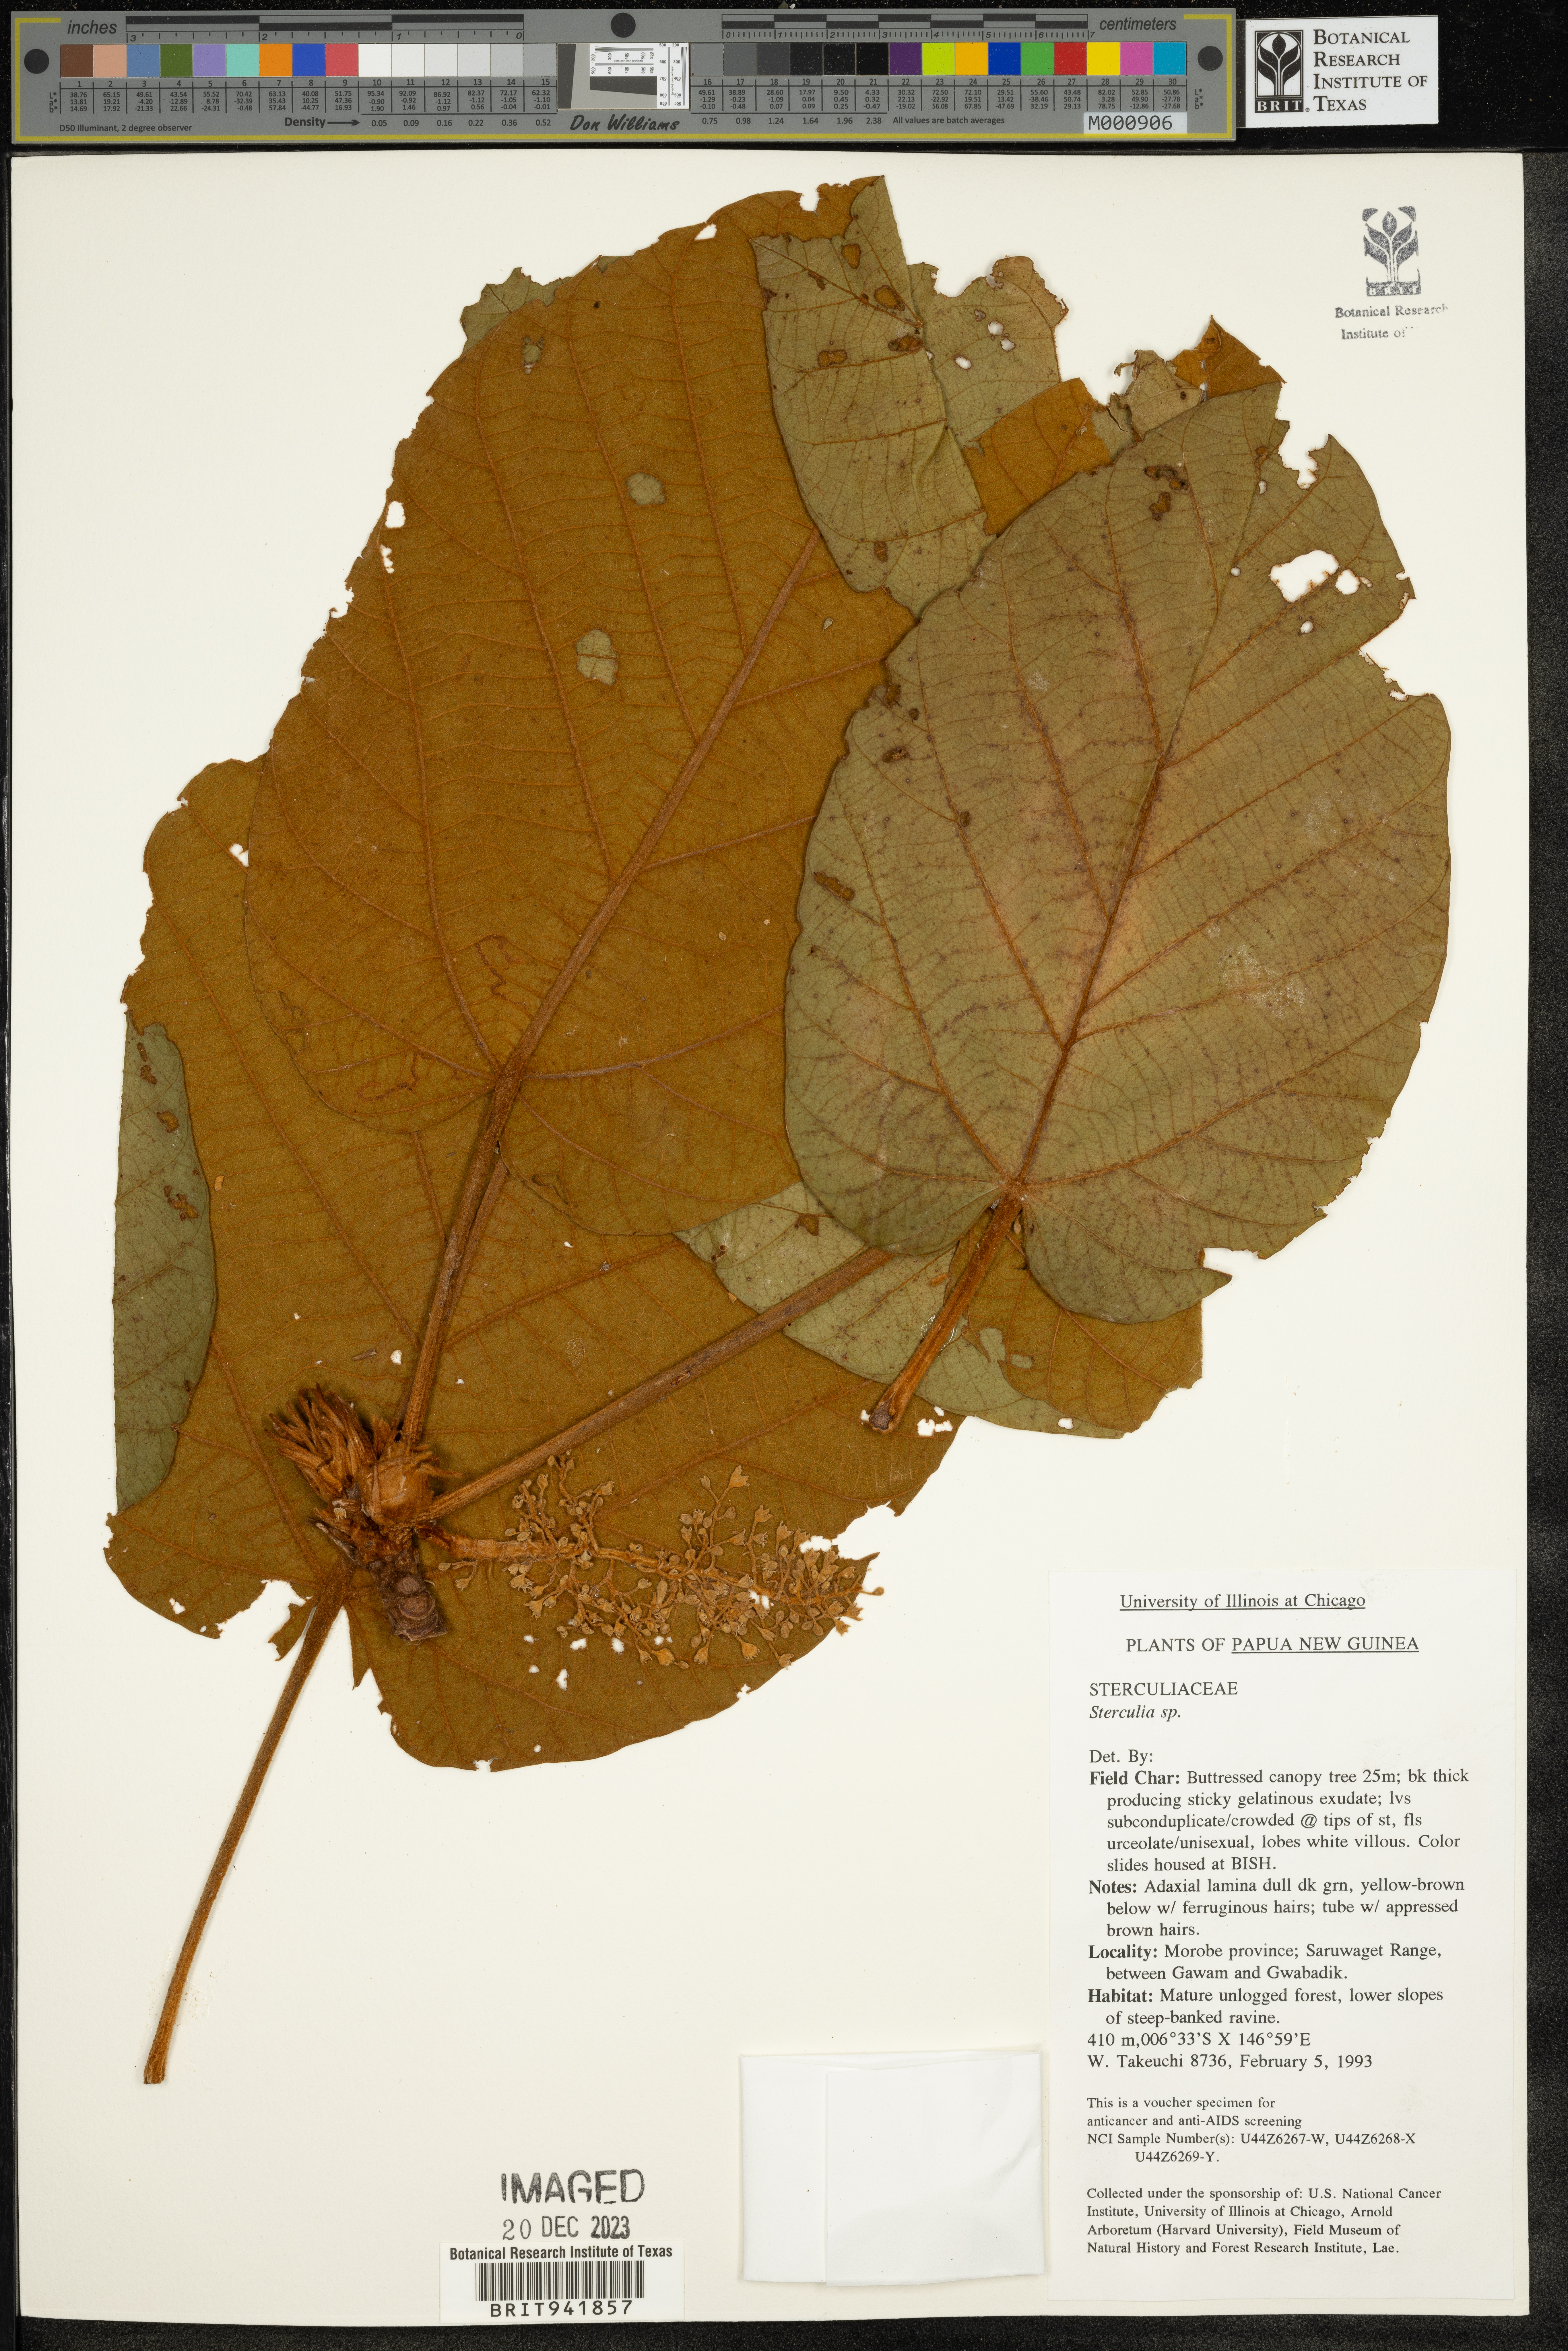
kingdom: Plantae
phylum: Tracheophyta
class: Magnoliopsida
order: Malvales
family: Malvaceae
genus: Sterculia
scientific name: Sterculia
